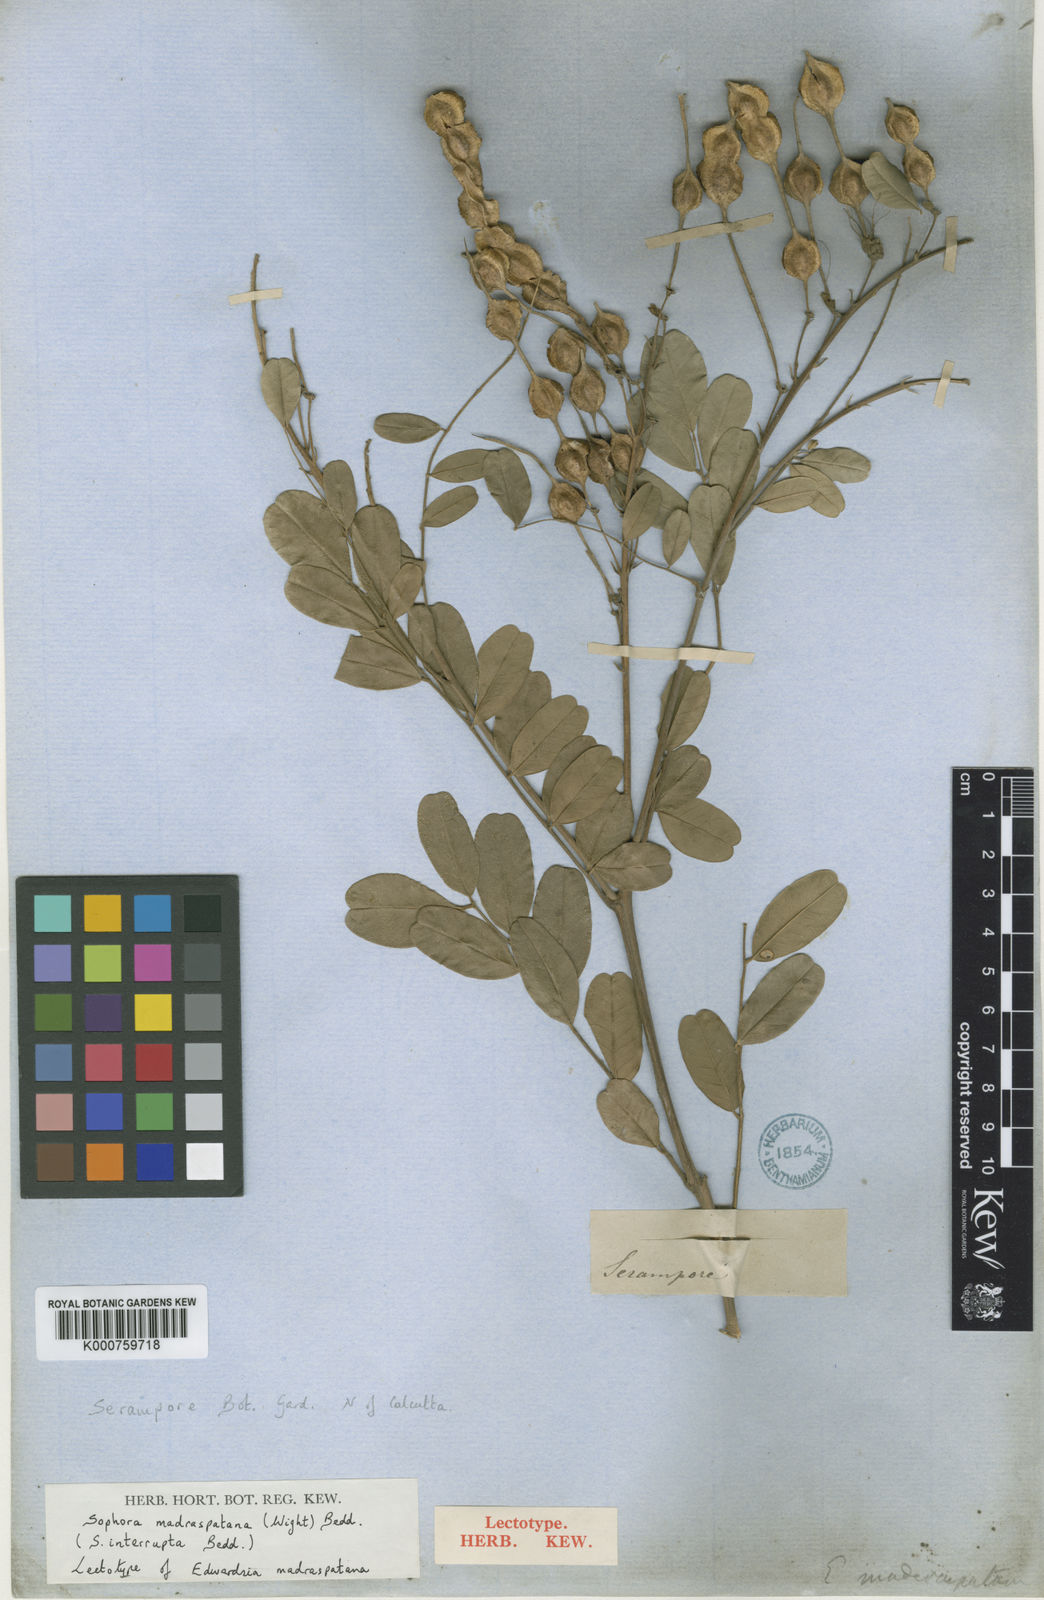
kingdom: Plantae
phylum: Tracheophyta
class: Magnoliopsida
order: Fabales
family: Fabaceae
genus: Sophora
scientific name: Sophora
